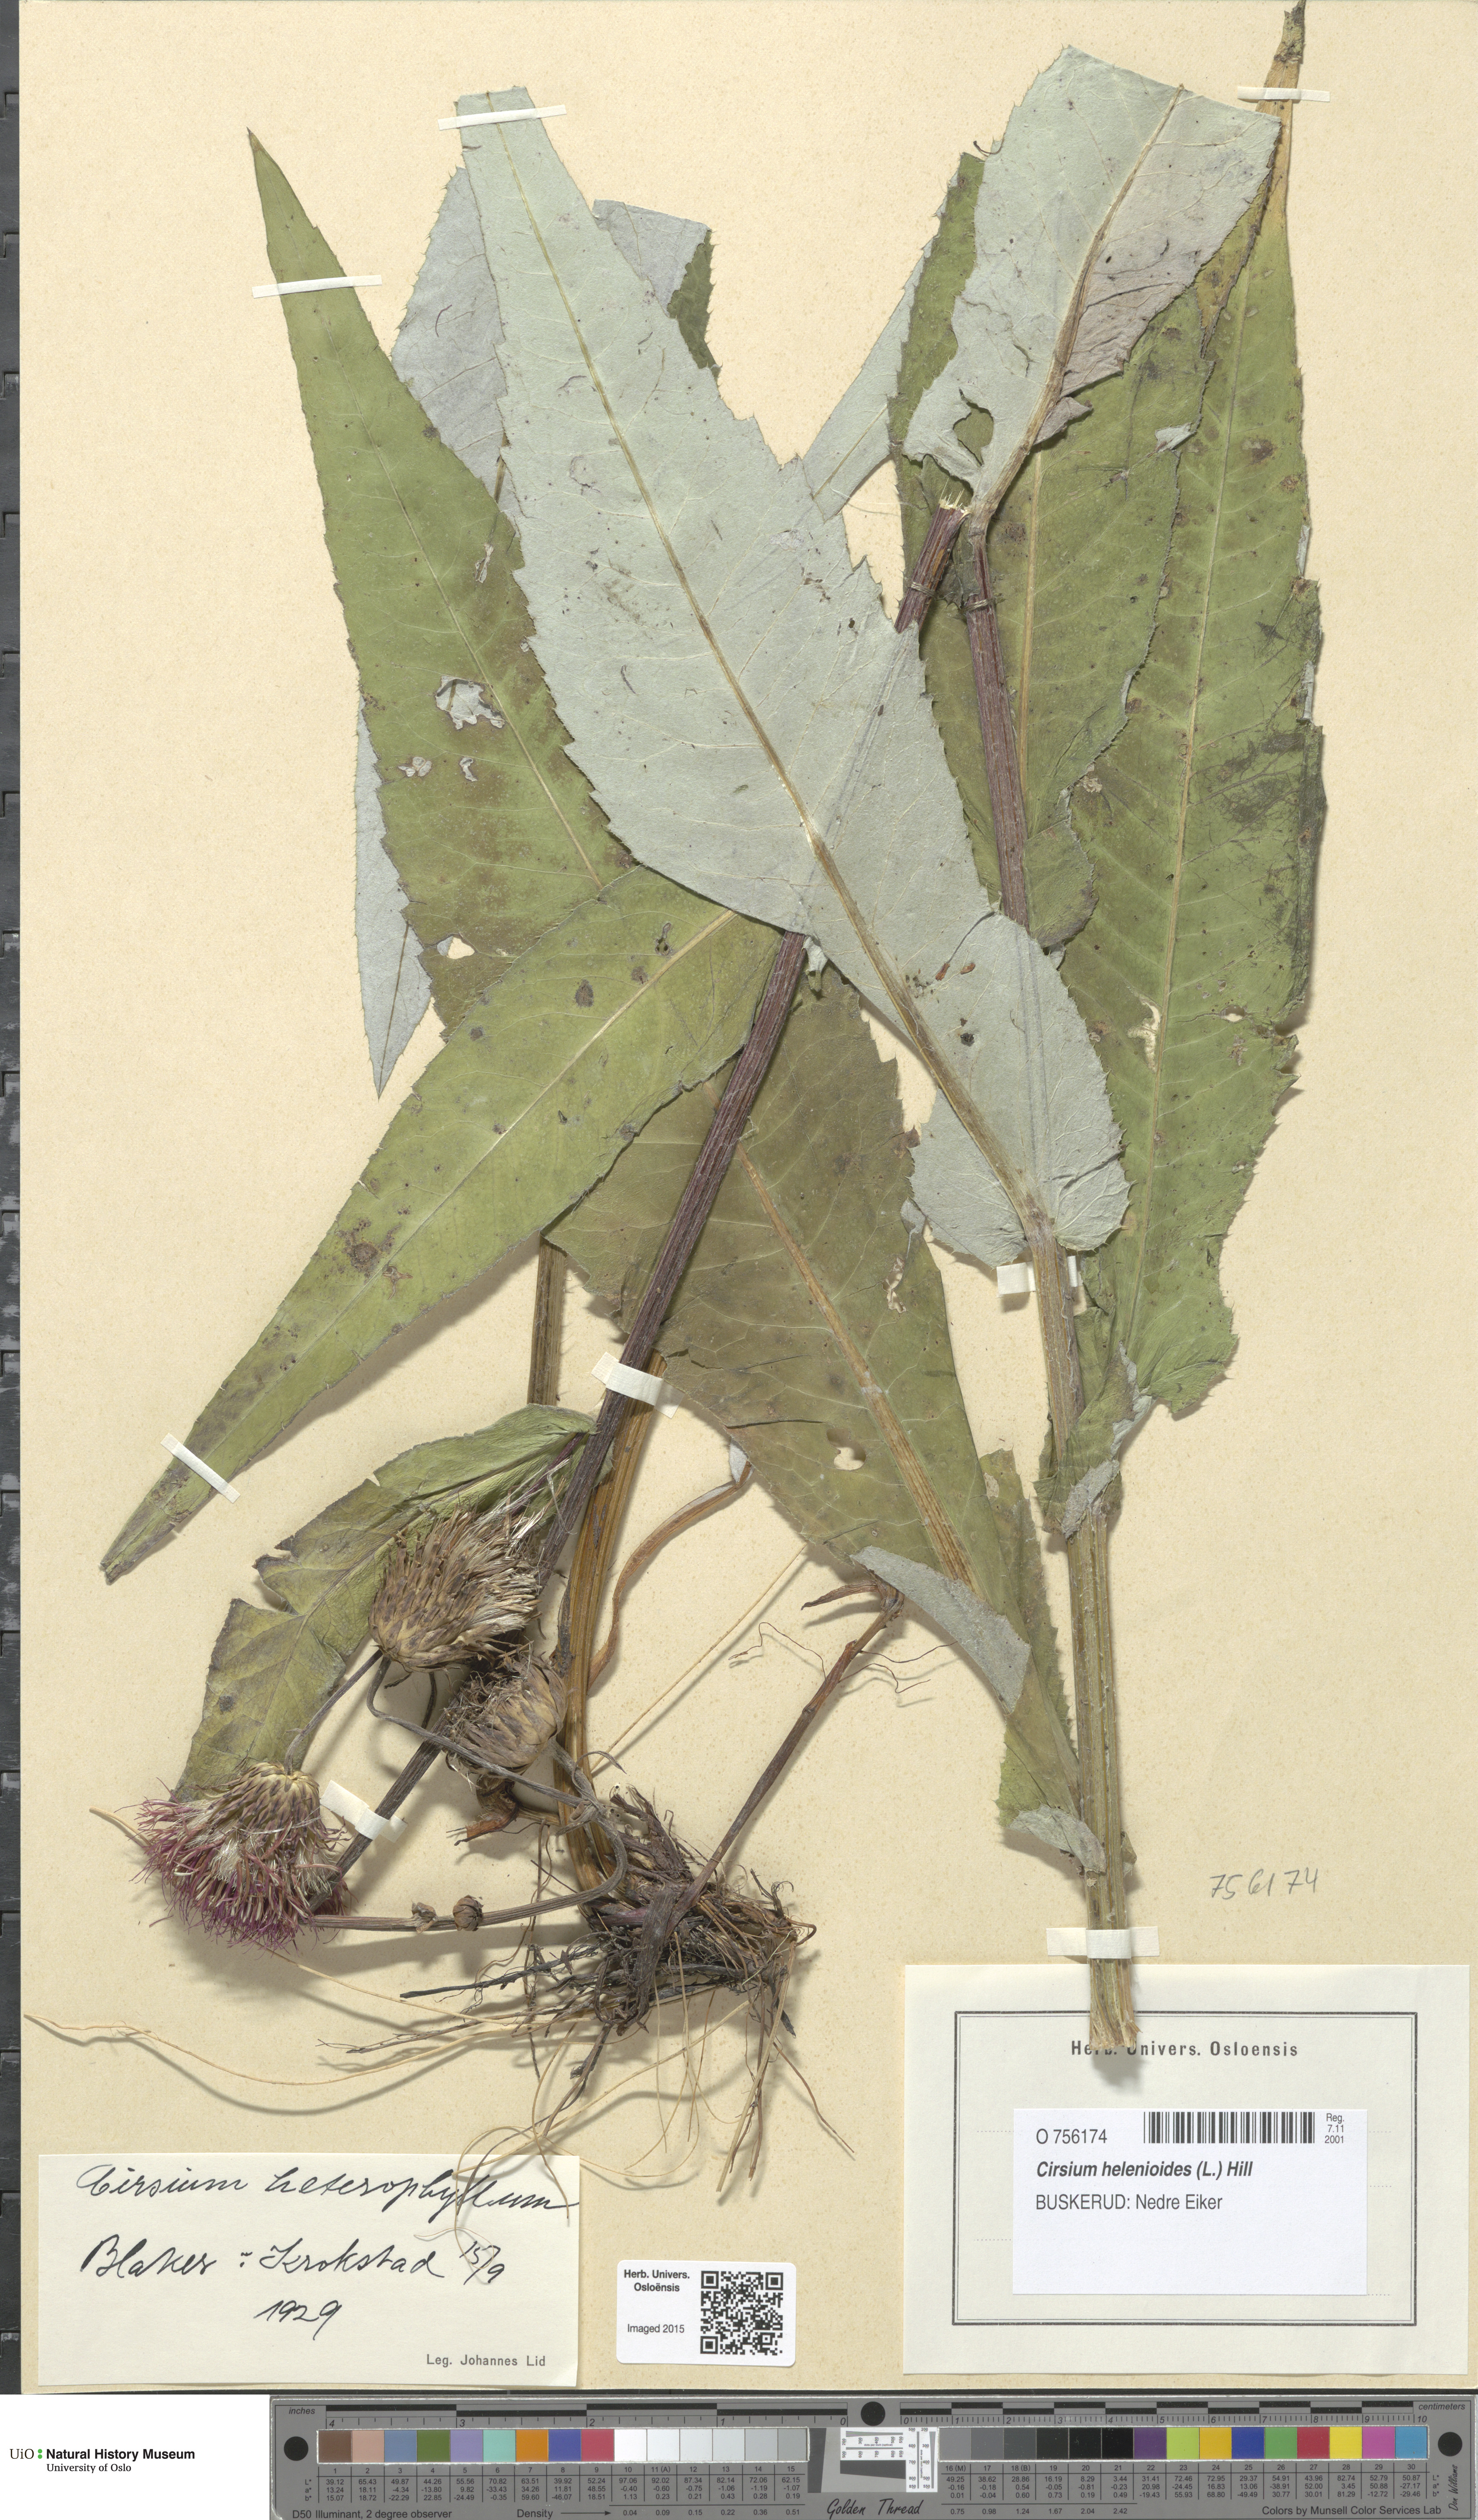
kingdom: Plantae
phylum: Tracheophyta
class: Magnoliopsida
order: Asterales
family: Asteraceae
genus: Cirsium
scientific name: Cirsium heterophyllum
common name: Melancholy thistle
